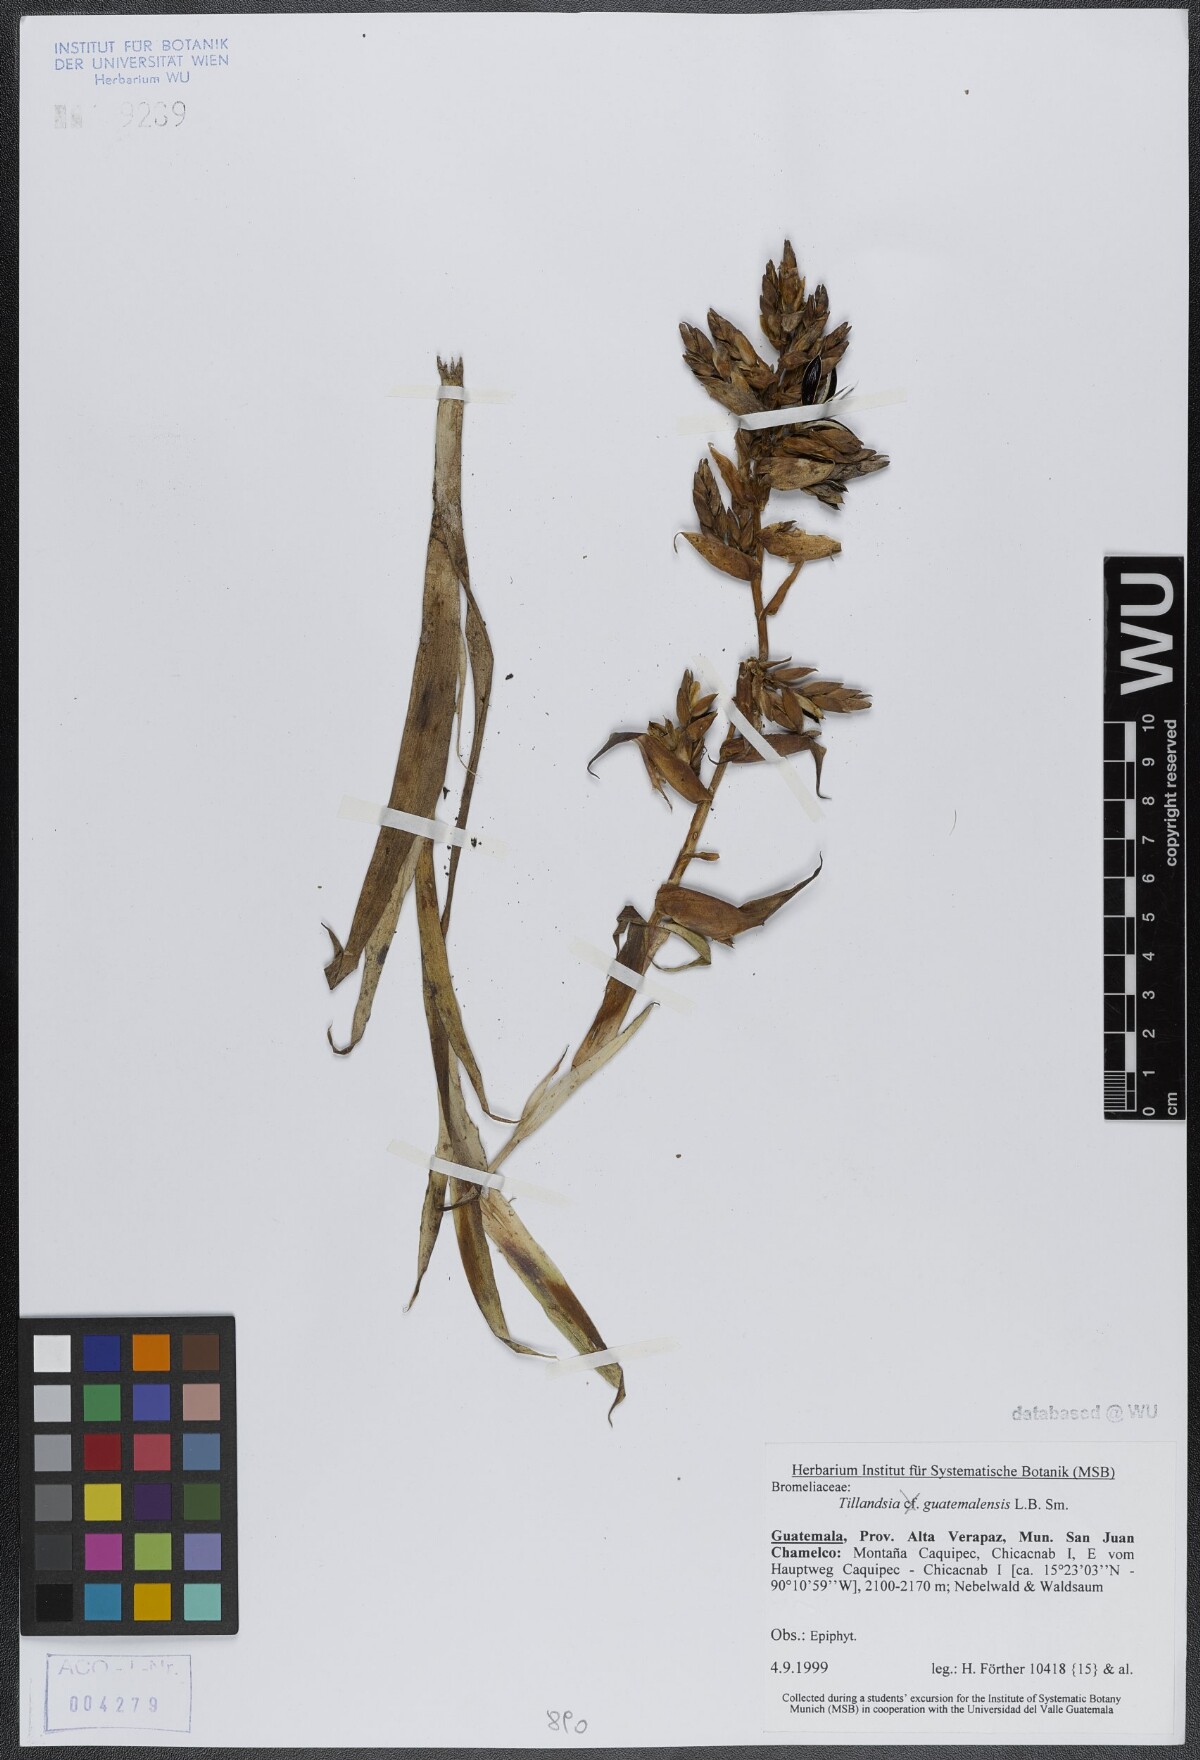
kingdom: Plantae
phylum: Tracheophyta
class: Liliopsida
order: Poales
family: Bromeliaceae
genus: Tillandsia
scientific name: Tillandsia guatemalensis
